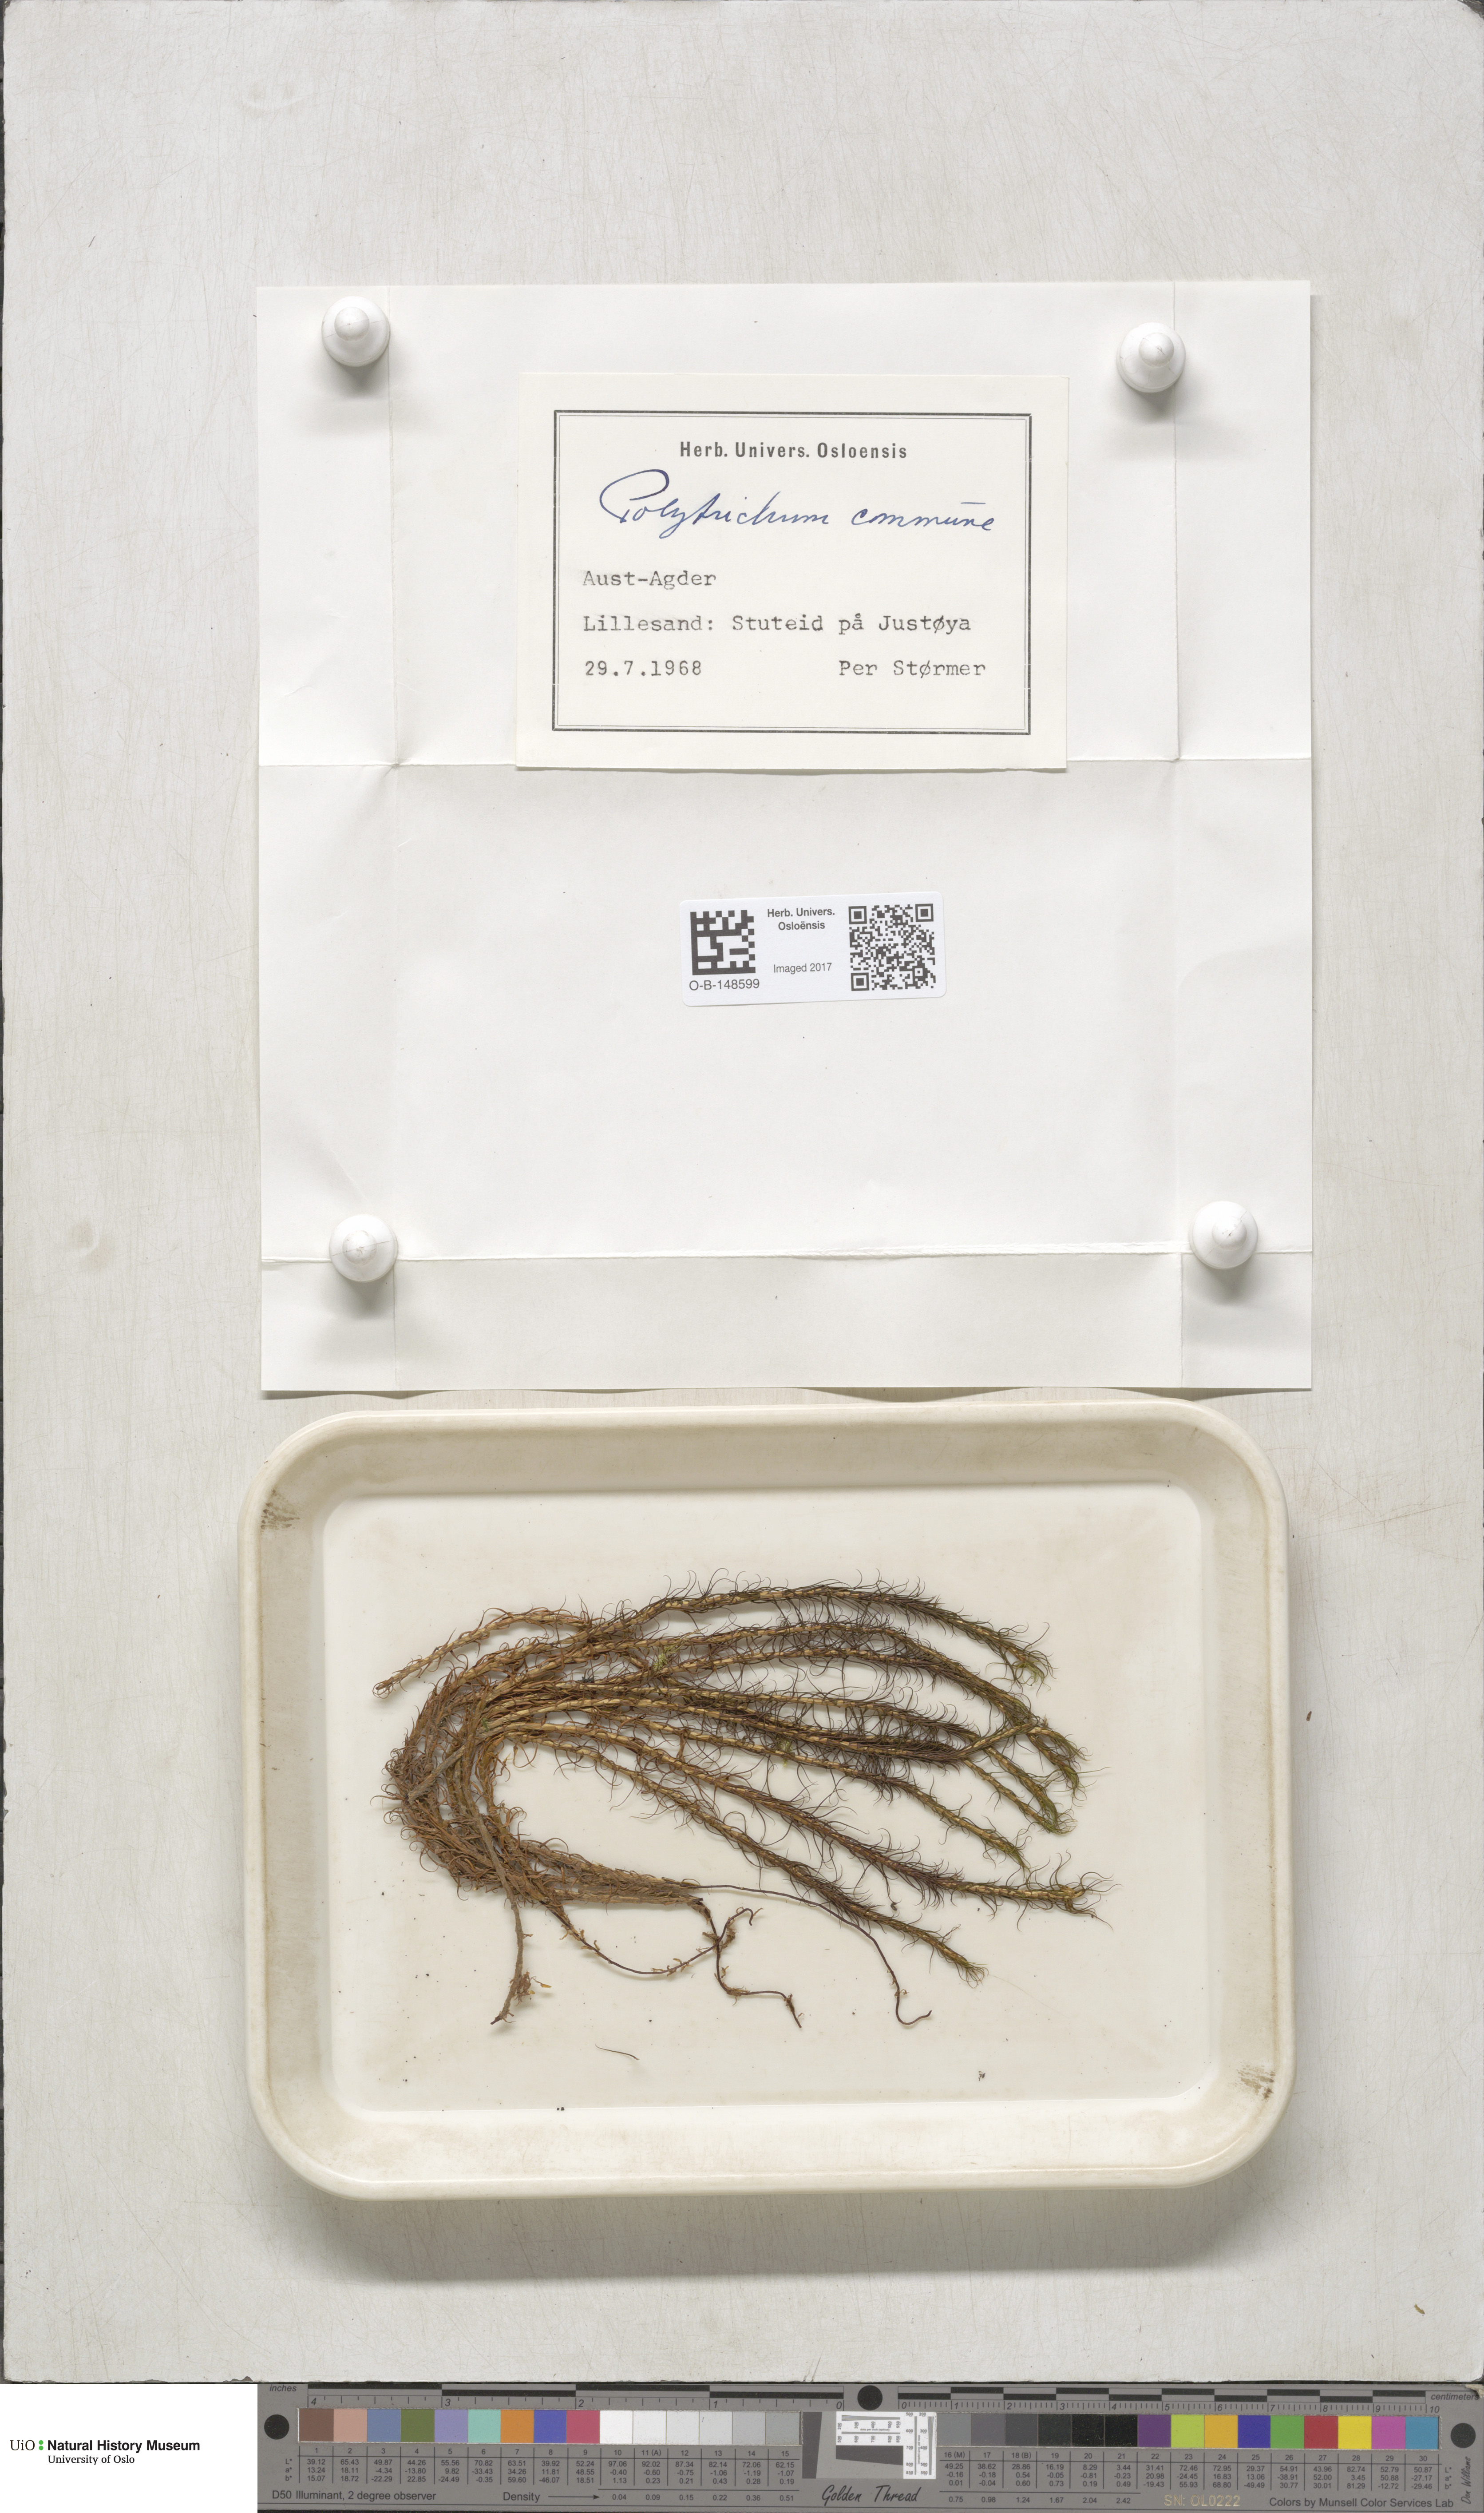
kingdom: Plantae
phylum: Bryophyta
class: Polytrichopsida
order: Polytrichales
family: Polytrichaceae
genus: Polytrichum
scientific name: Polytrichum commune
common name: Common haircap
